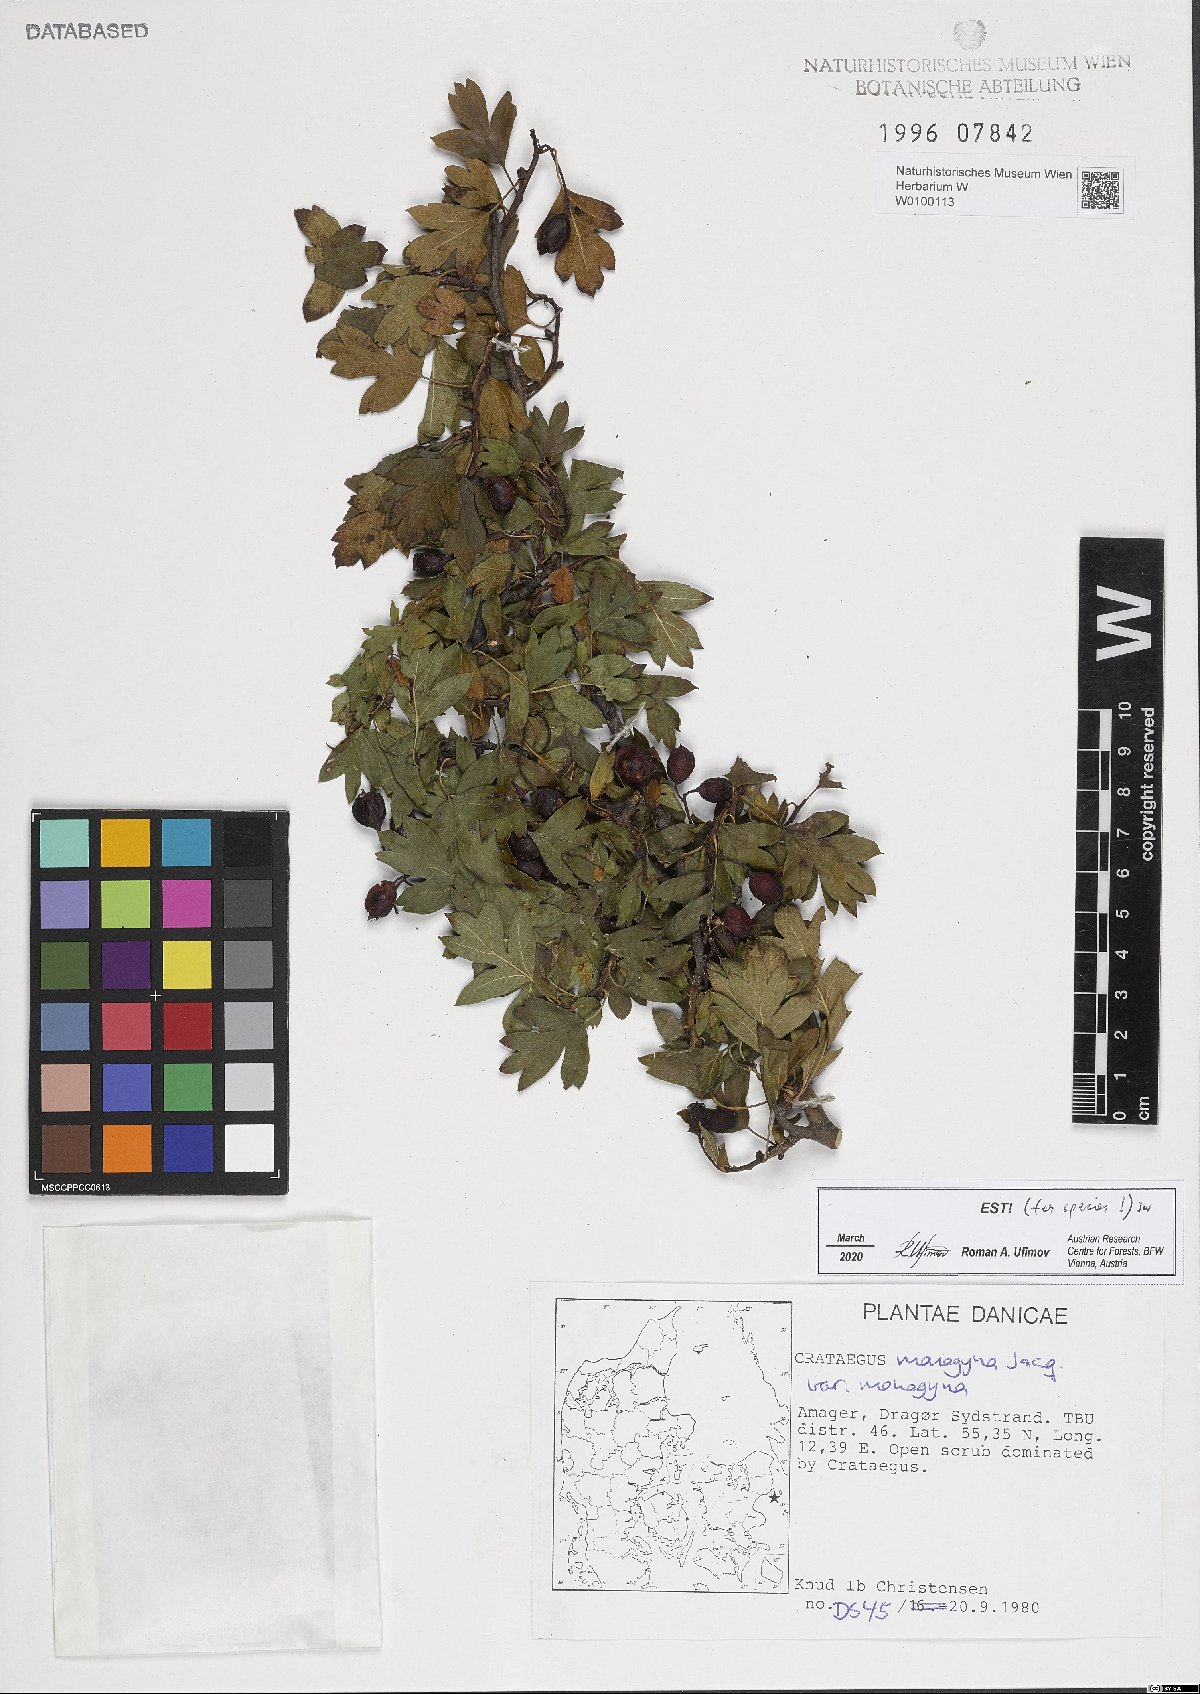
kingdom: Plantae
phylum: Tracheophyta
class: Magnoliopsida
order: Rosales
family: Rosaceae
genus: Crataegus
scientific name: Crataegus monogyna
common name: Hawthorn
